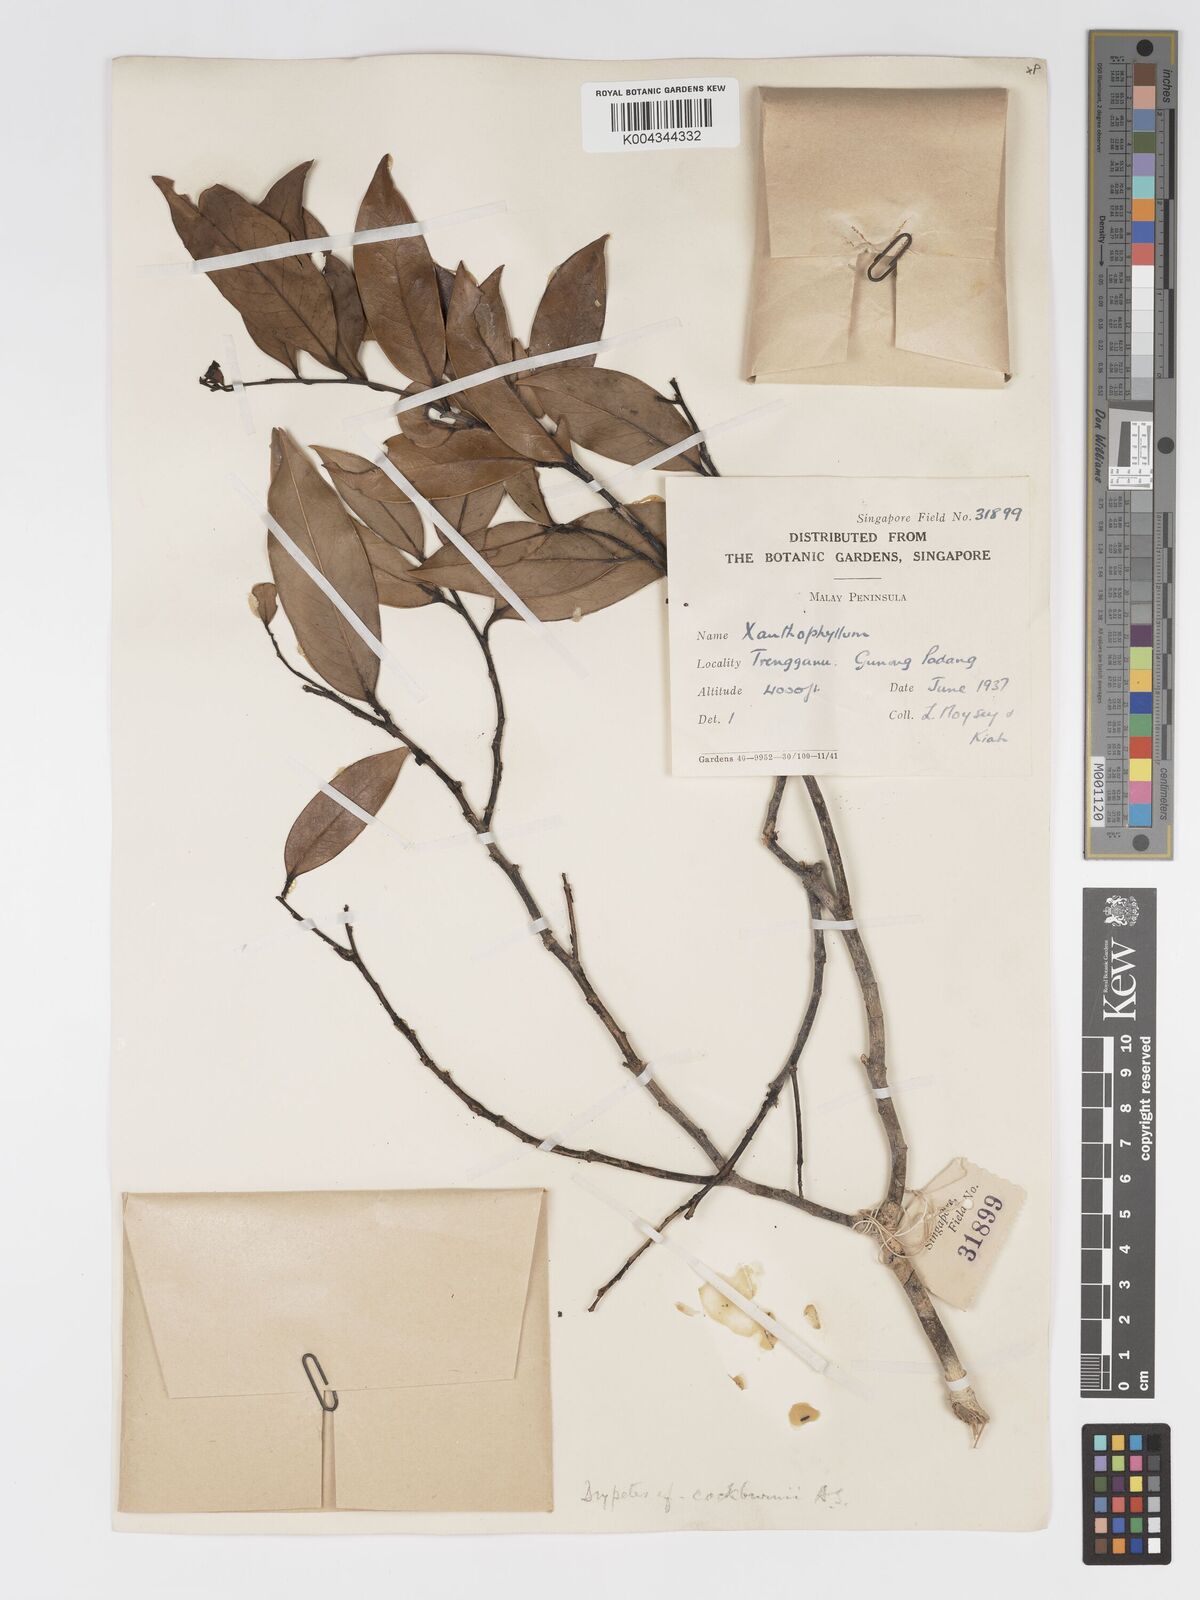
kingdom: Plantae
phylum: Tracheophyta
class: Magnoliopsida
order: Malpighiales
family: Putranjivaceae
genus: Drypetes
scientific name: Drypetes cockburnii
